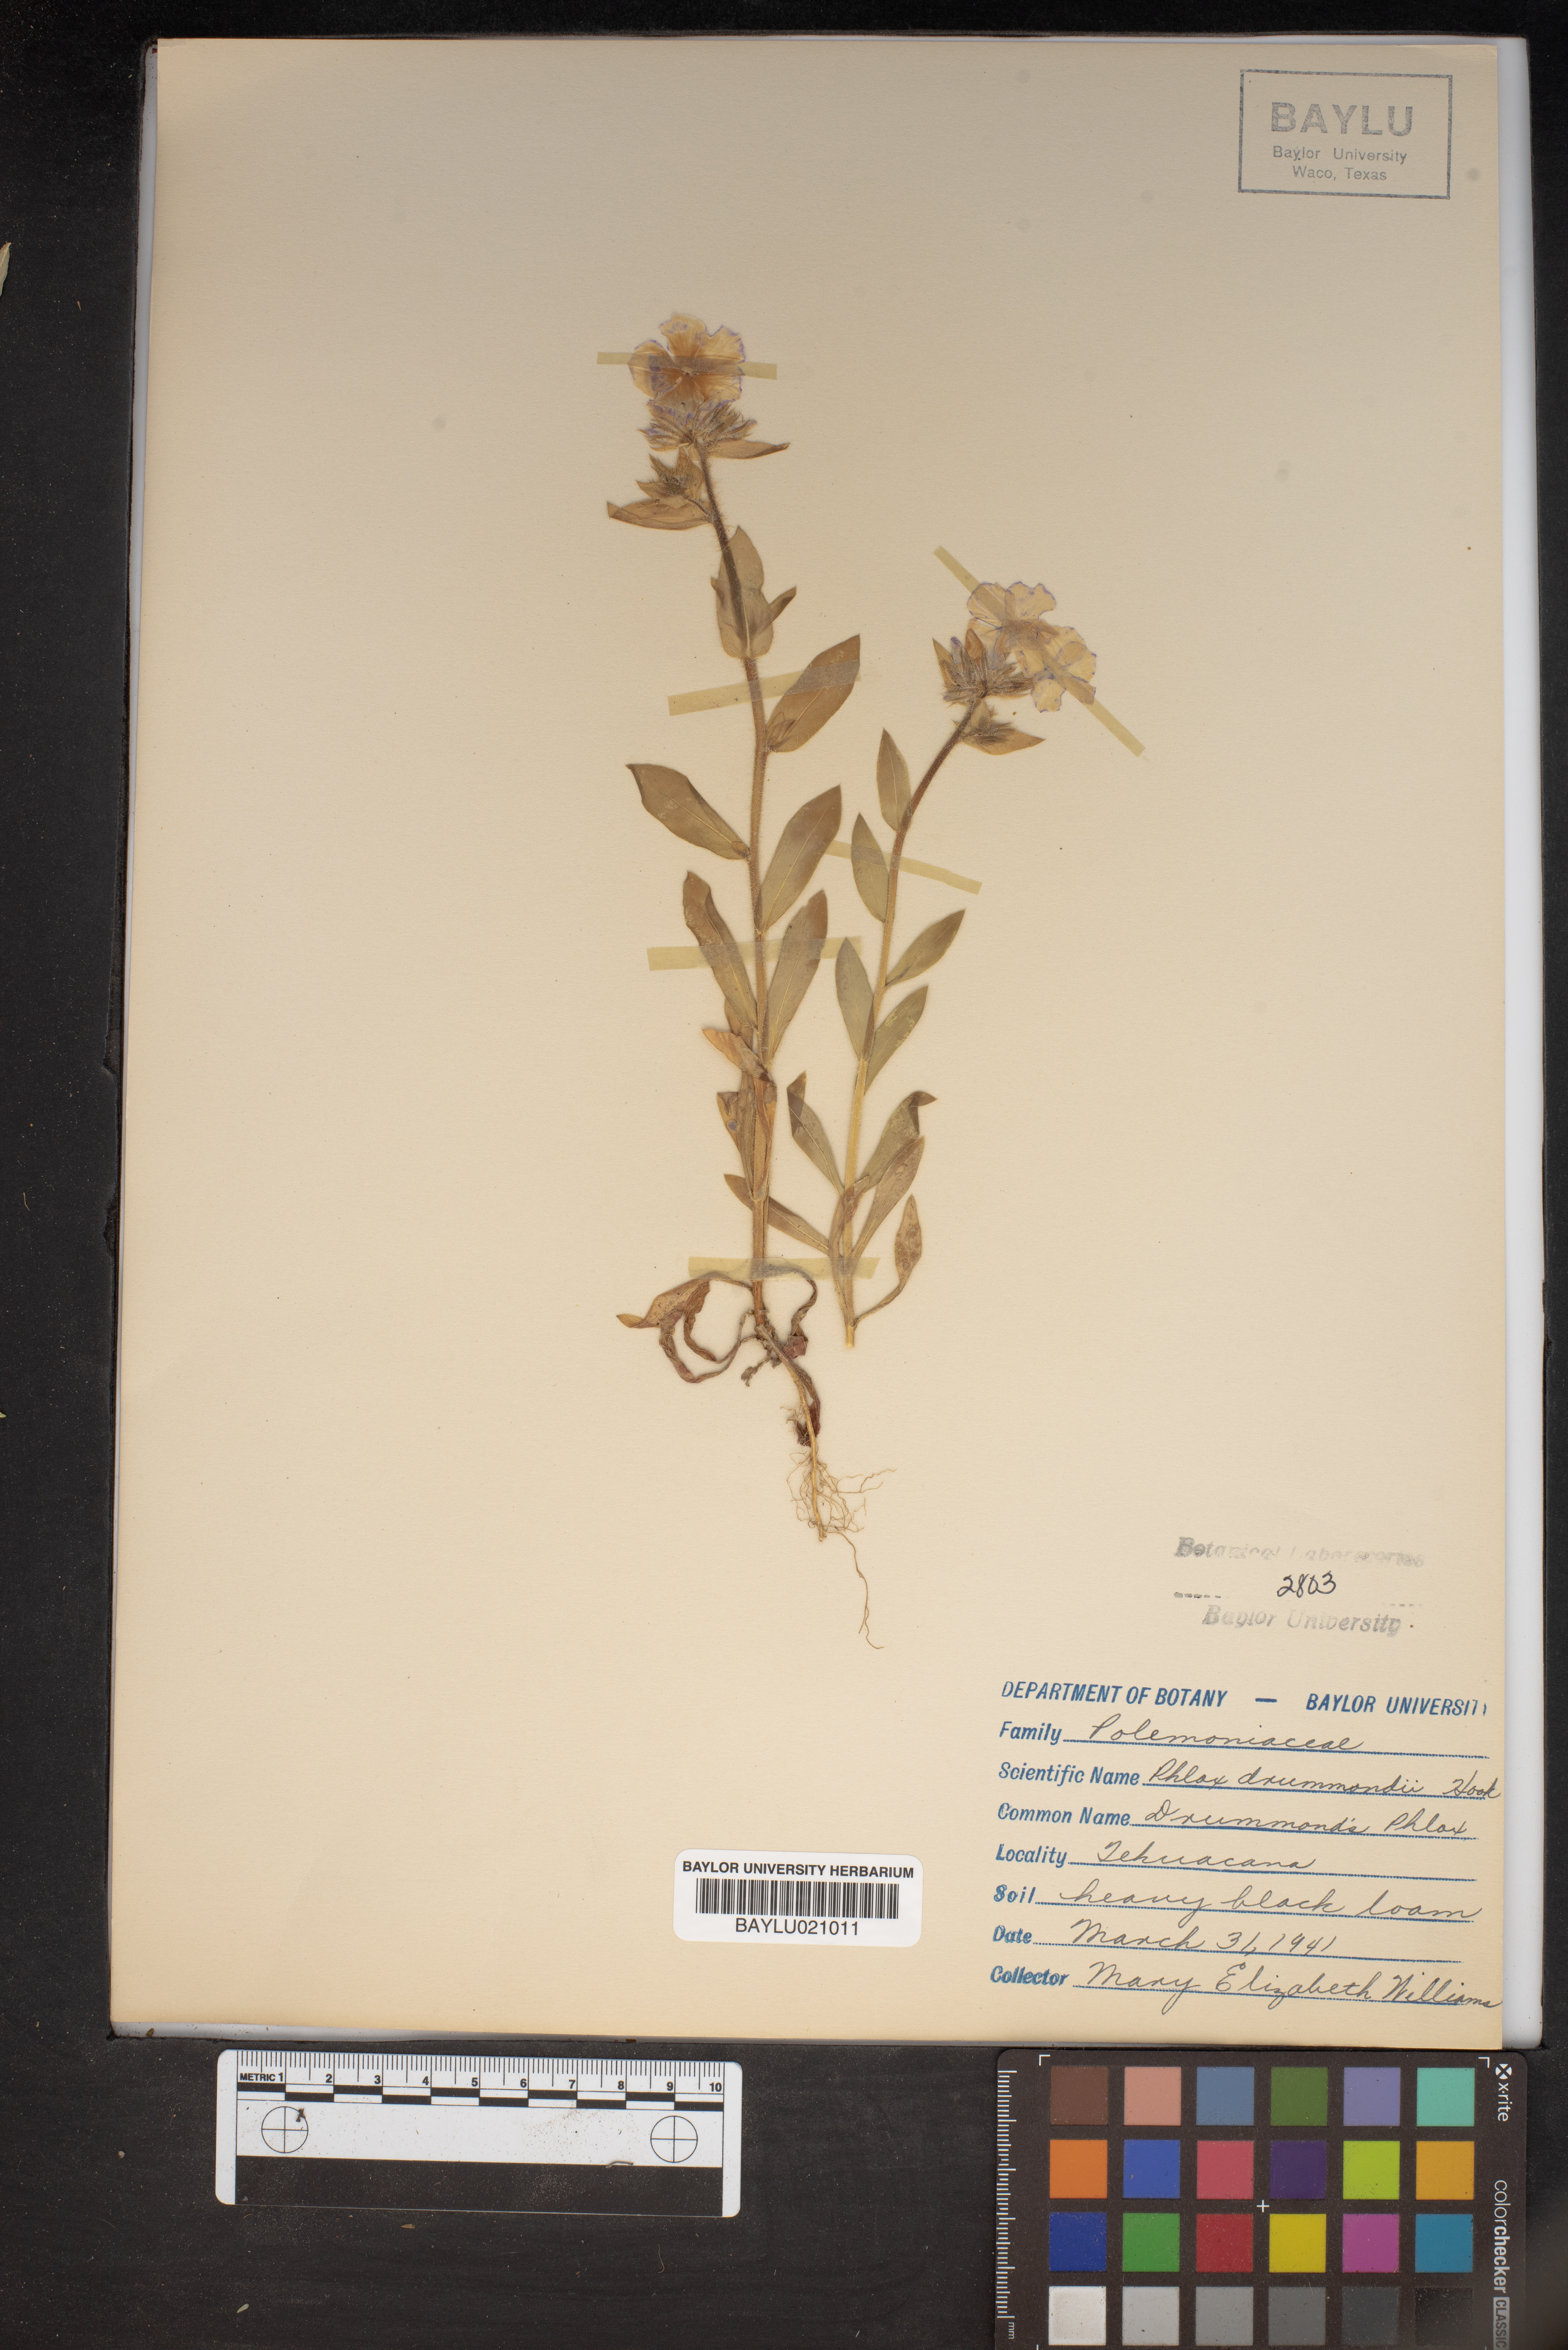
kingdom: Plantae
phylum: Tracheophyta
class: Magnoliopsida
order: Ericales
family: Polemoniaceae
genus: Phlox
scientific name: Phlox drummondii
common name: Drummond's phlox
